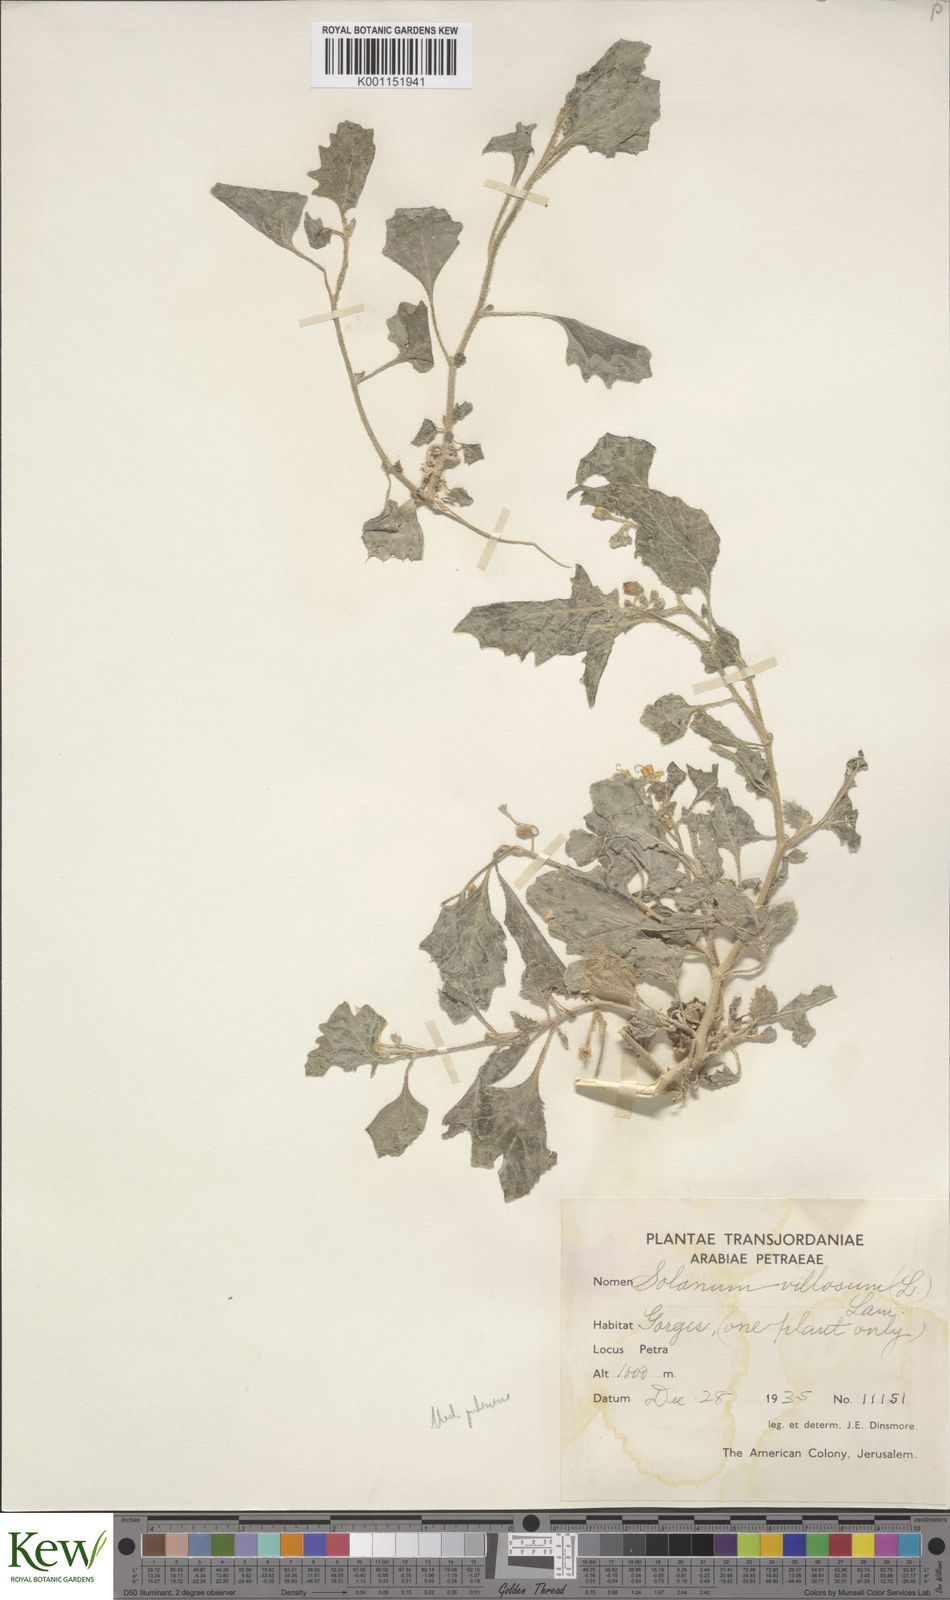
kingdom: Plantae
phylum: Tracheophyta
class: Magnoliopsida
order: Solanales
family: Solanaceae
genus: Solanum
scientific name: Solanum villosum
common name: Red nightshade
